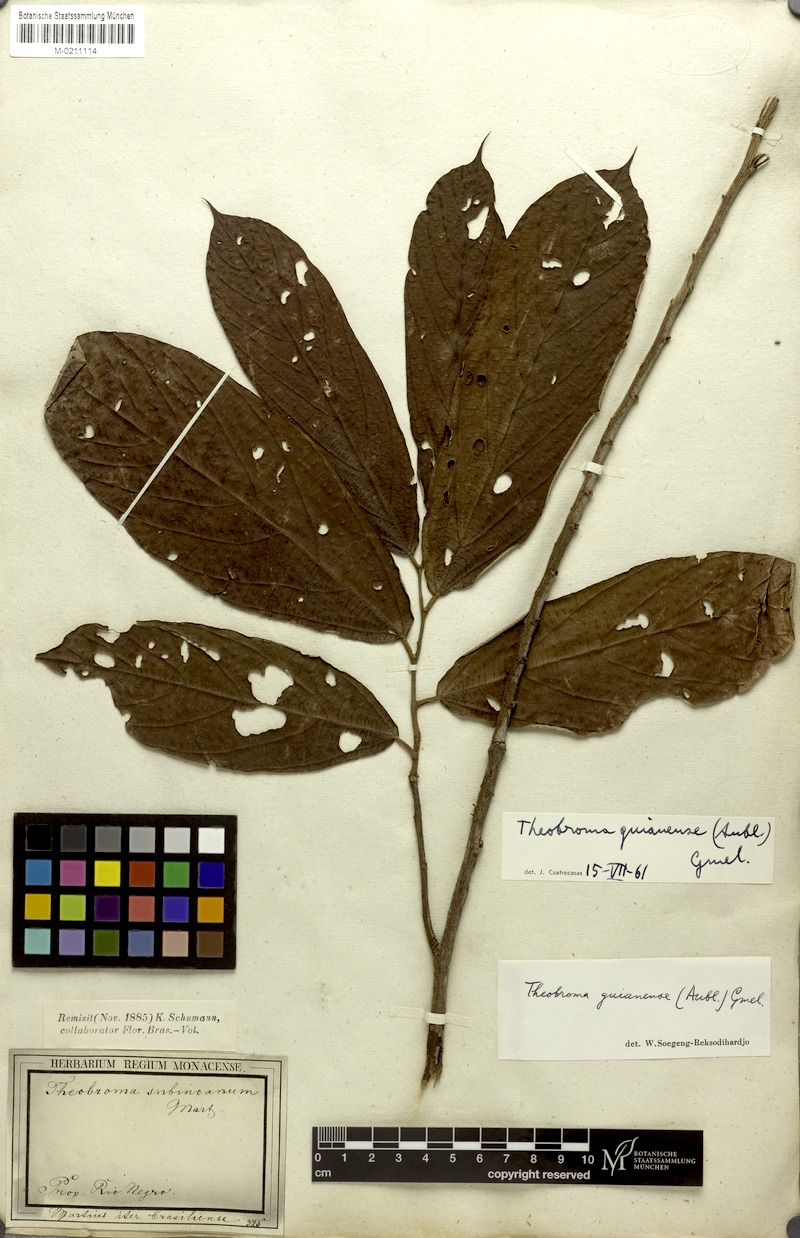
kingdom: Plantae
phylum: Tracheophyta
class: Magnoliopsida
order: Malvales
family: Malvaceae
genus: Theobroma
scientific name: Theobroma subincanum
